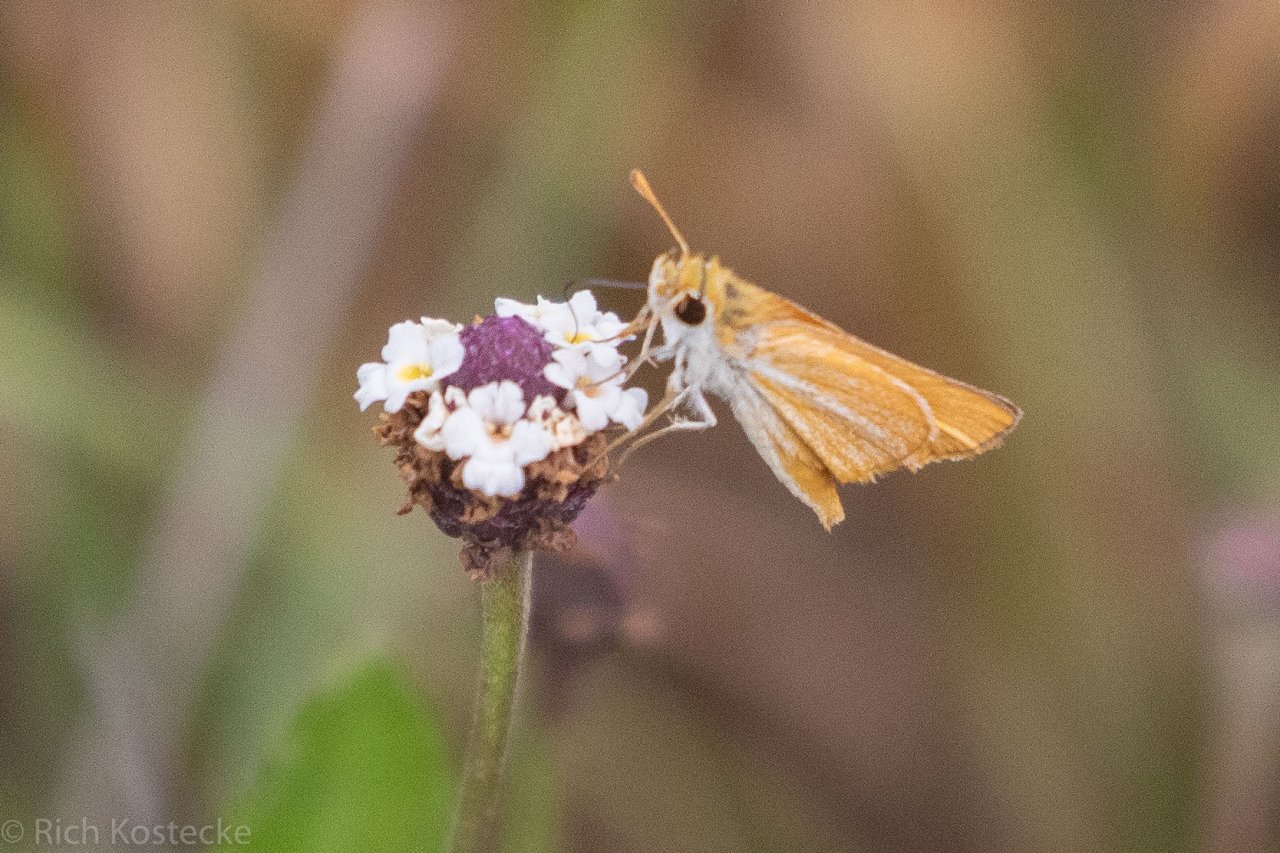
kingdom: Animalia
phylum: Arthropoda
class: Insecta
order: Lepidoptera
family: Hesperiidae
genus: Copaeodes
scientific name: Copaeodes minima
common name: Southern Skipperling
